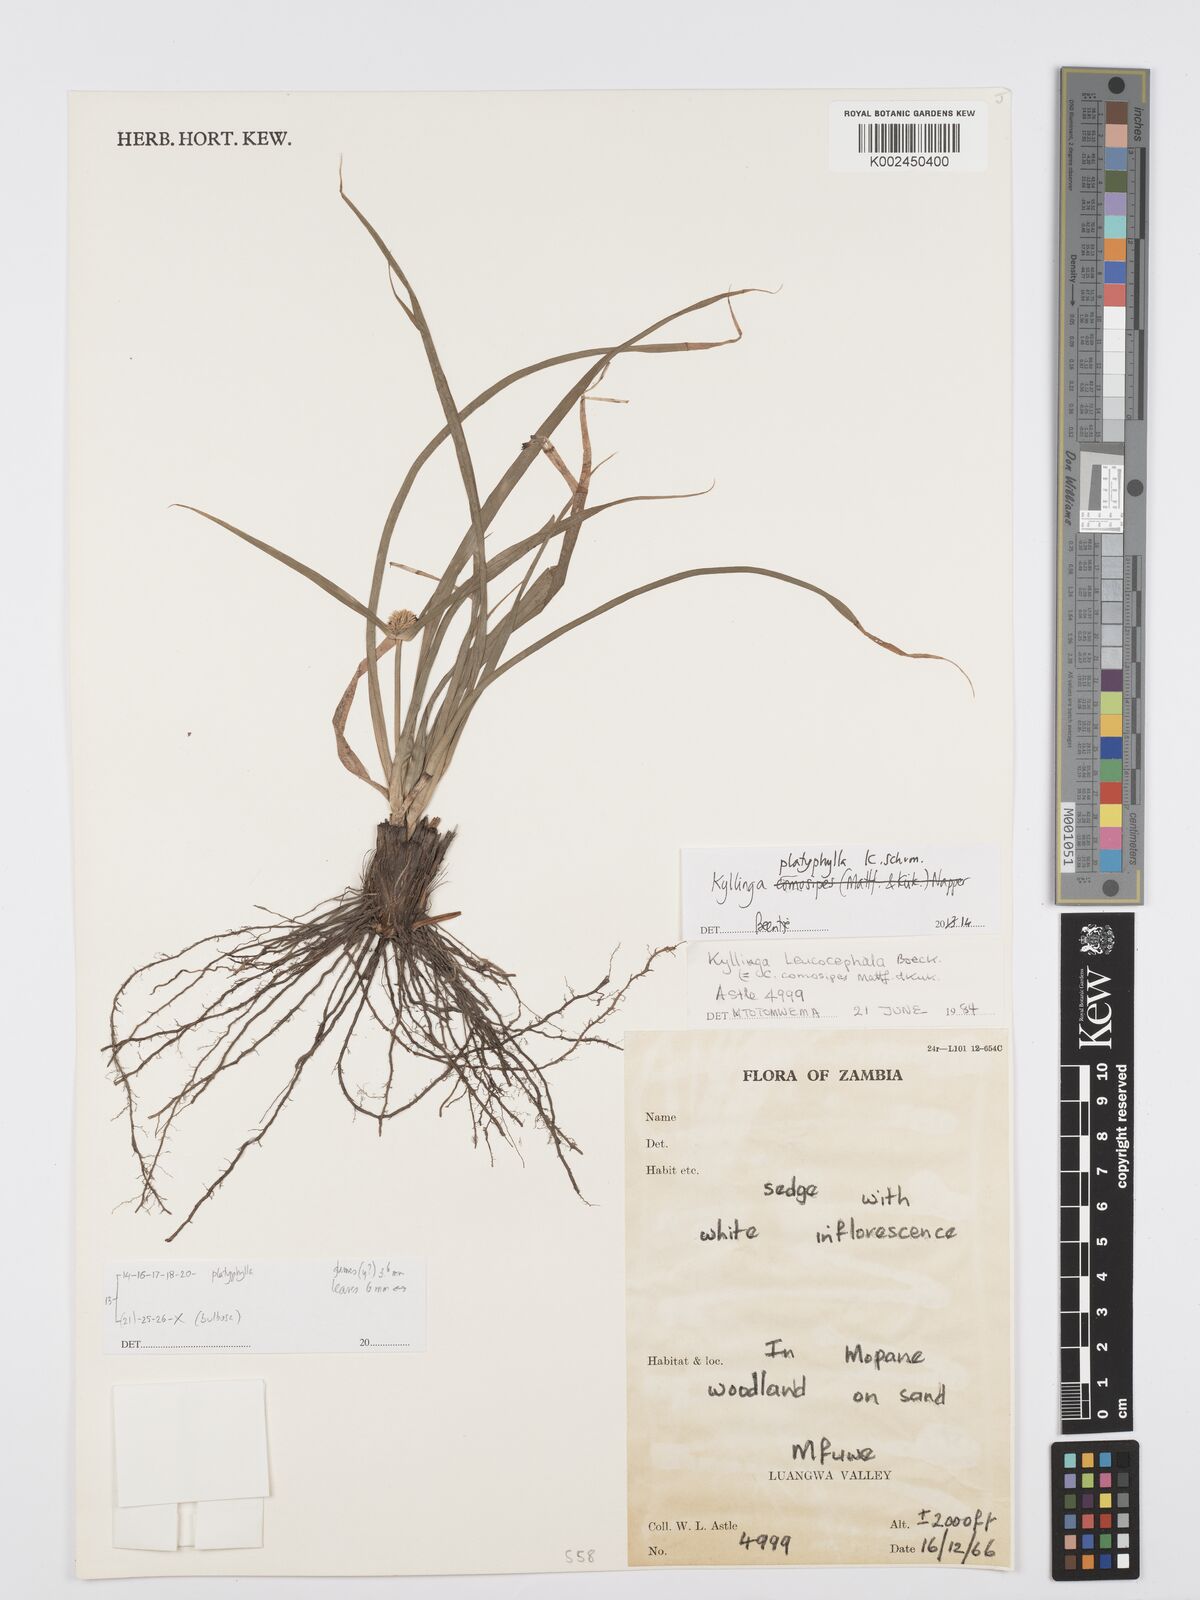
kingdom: Plantae
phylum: Tracheophyta
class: Liliopsida
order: Poales
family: Cyperaceae
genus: Cyperus
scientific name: Cyperus
